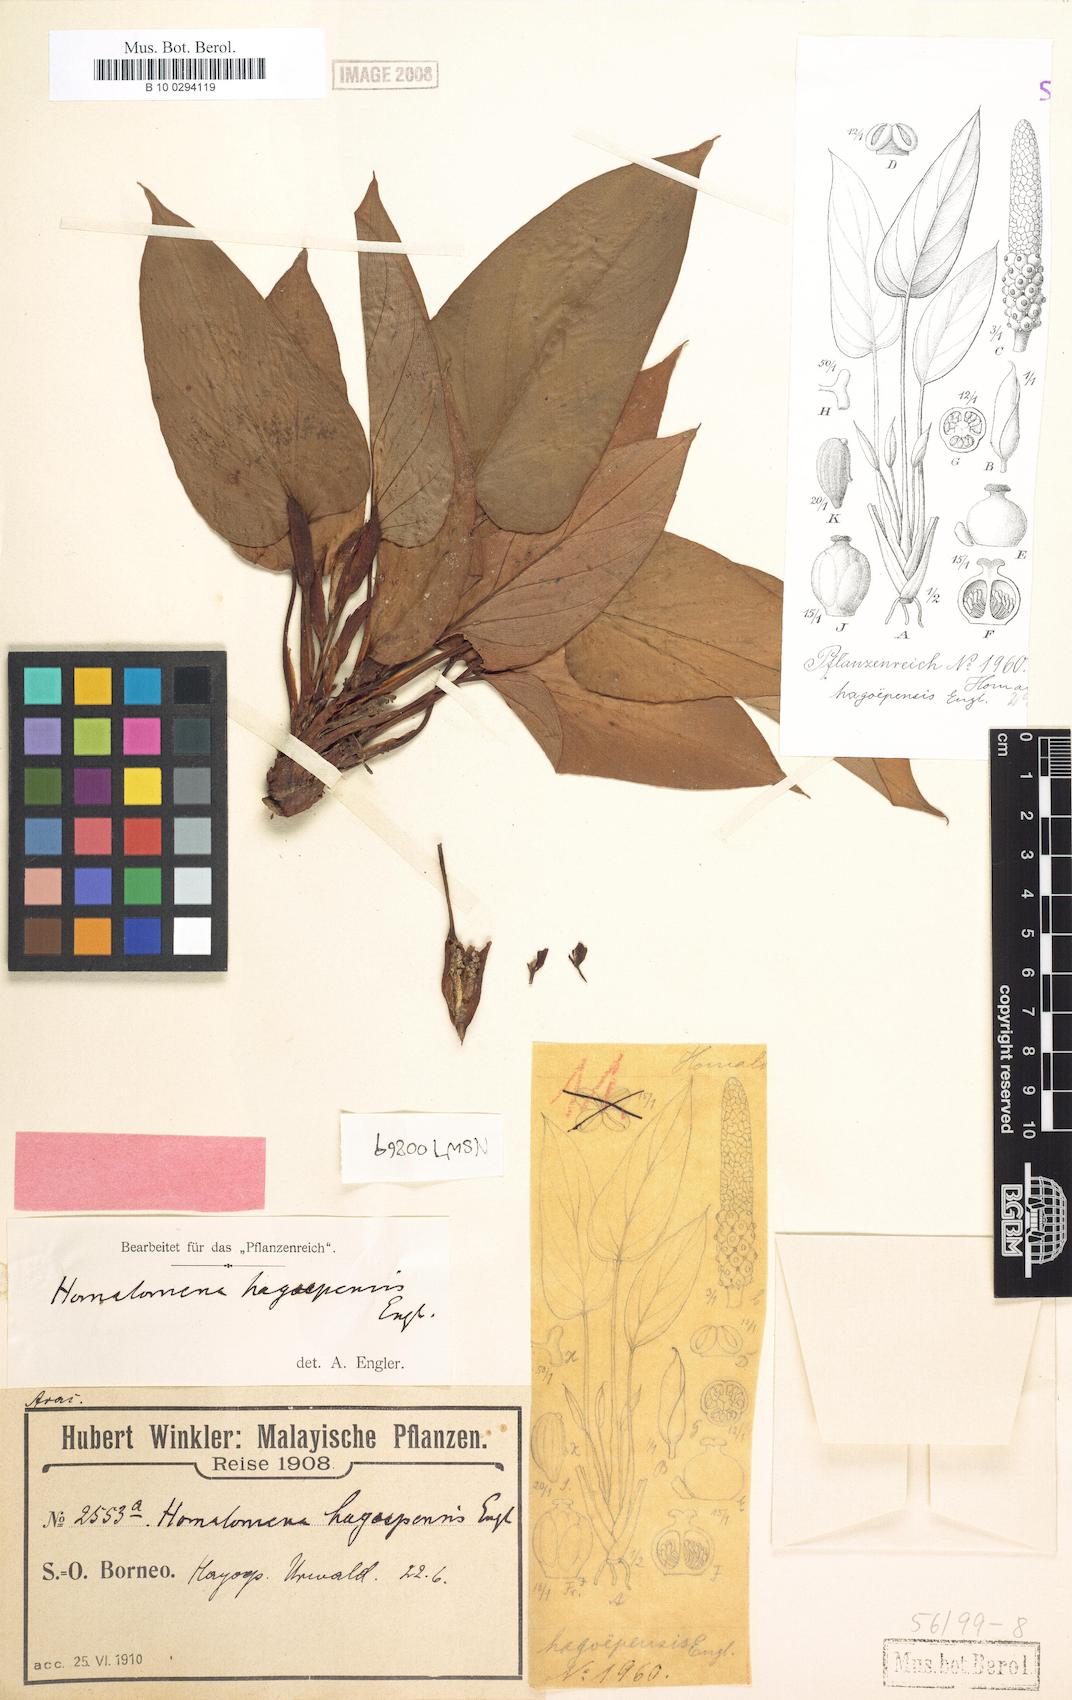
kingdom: Plantae
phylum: Tracheophyta
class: Liliopsida
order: Alismatales
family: Araceae
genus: Homalomena
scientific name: Homalomena griffithii
